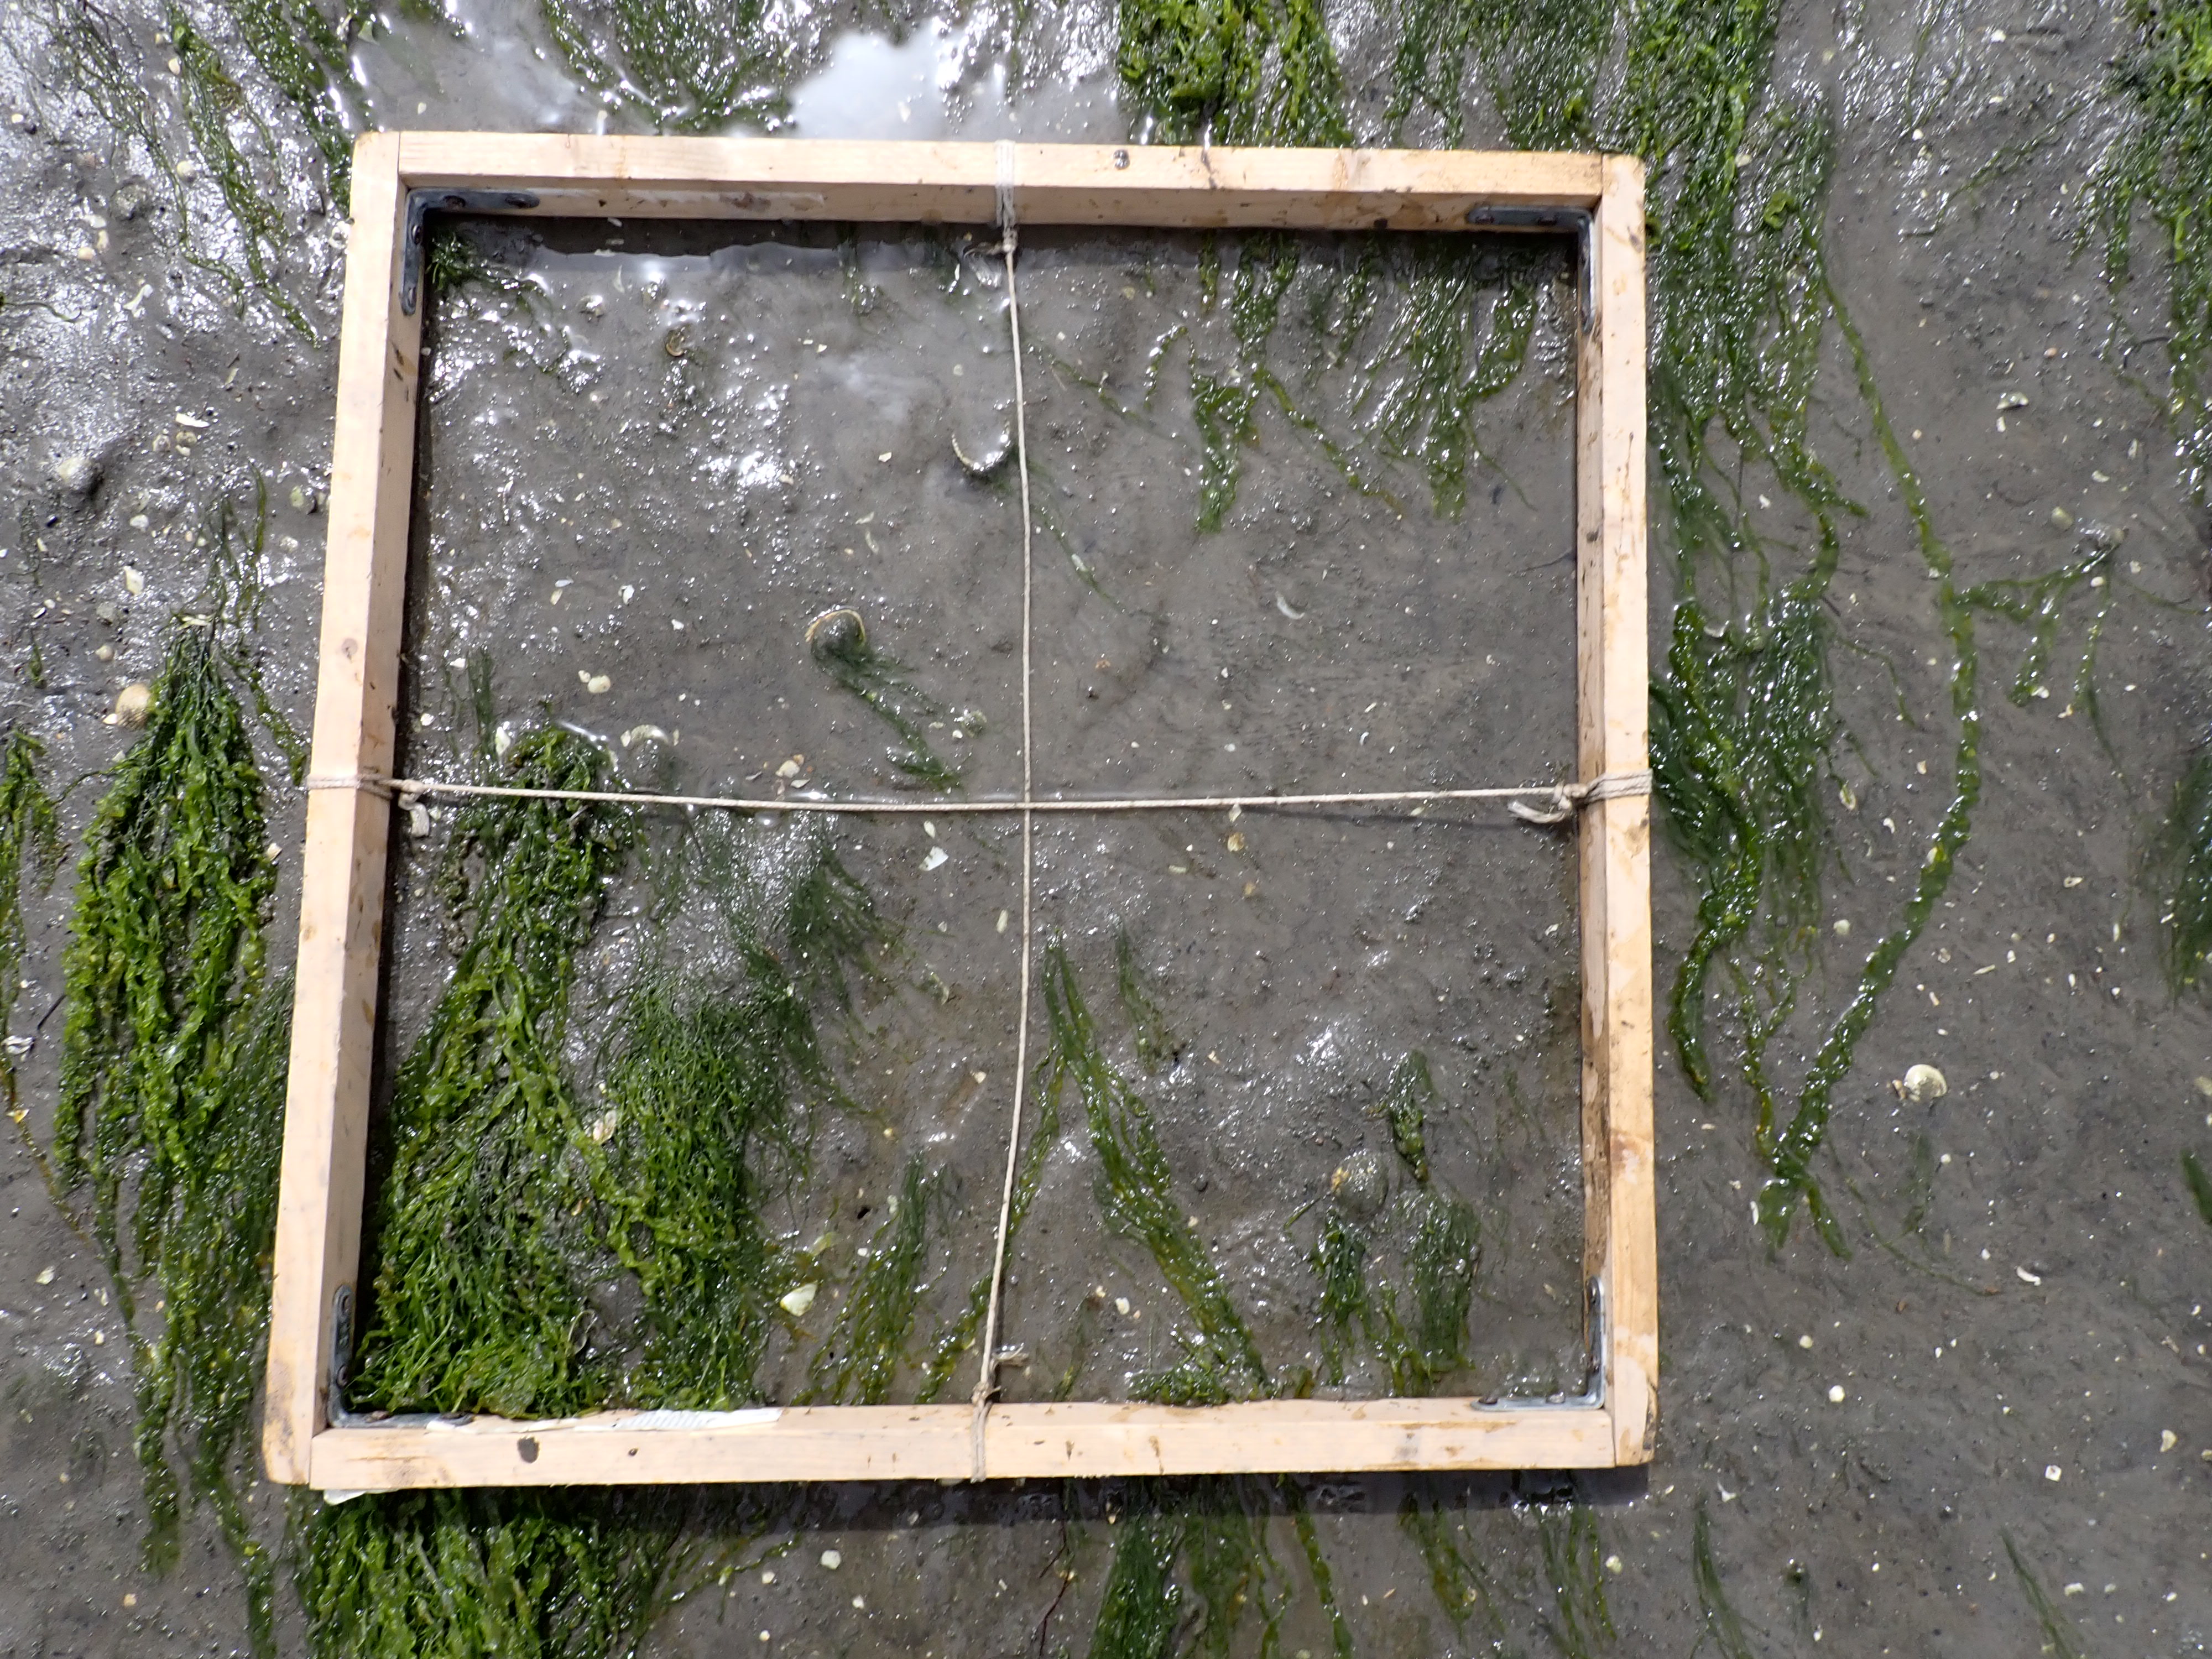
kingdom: Plantae
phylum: Chlorophyta
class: Ulvophyceae
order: Ulvales
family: Ulvaceae
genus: Ulva
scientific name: Ulva
